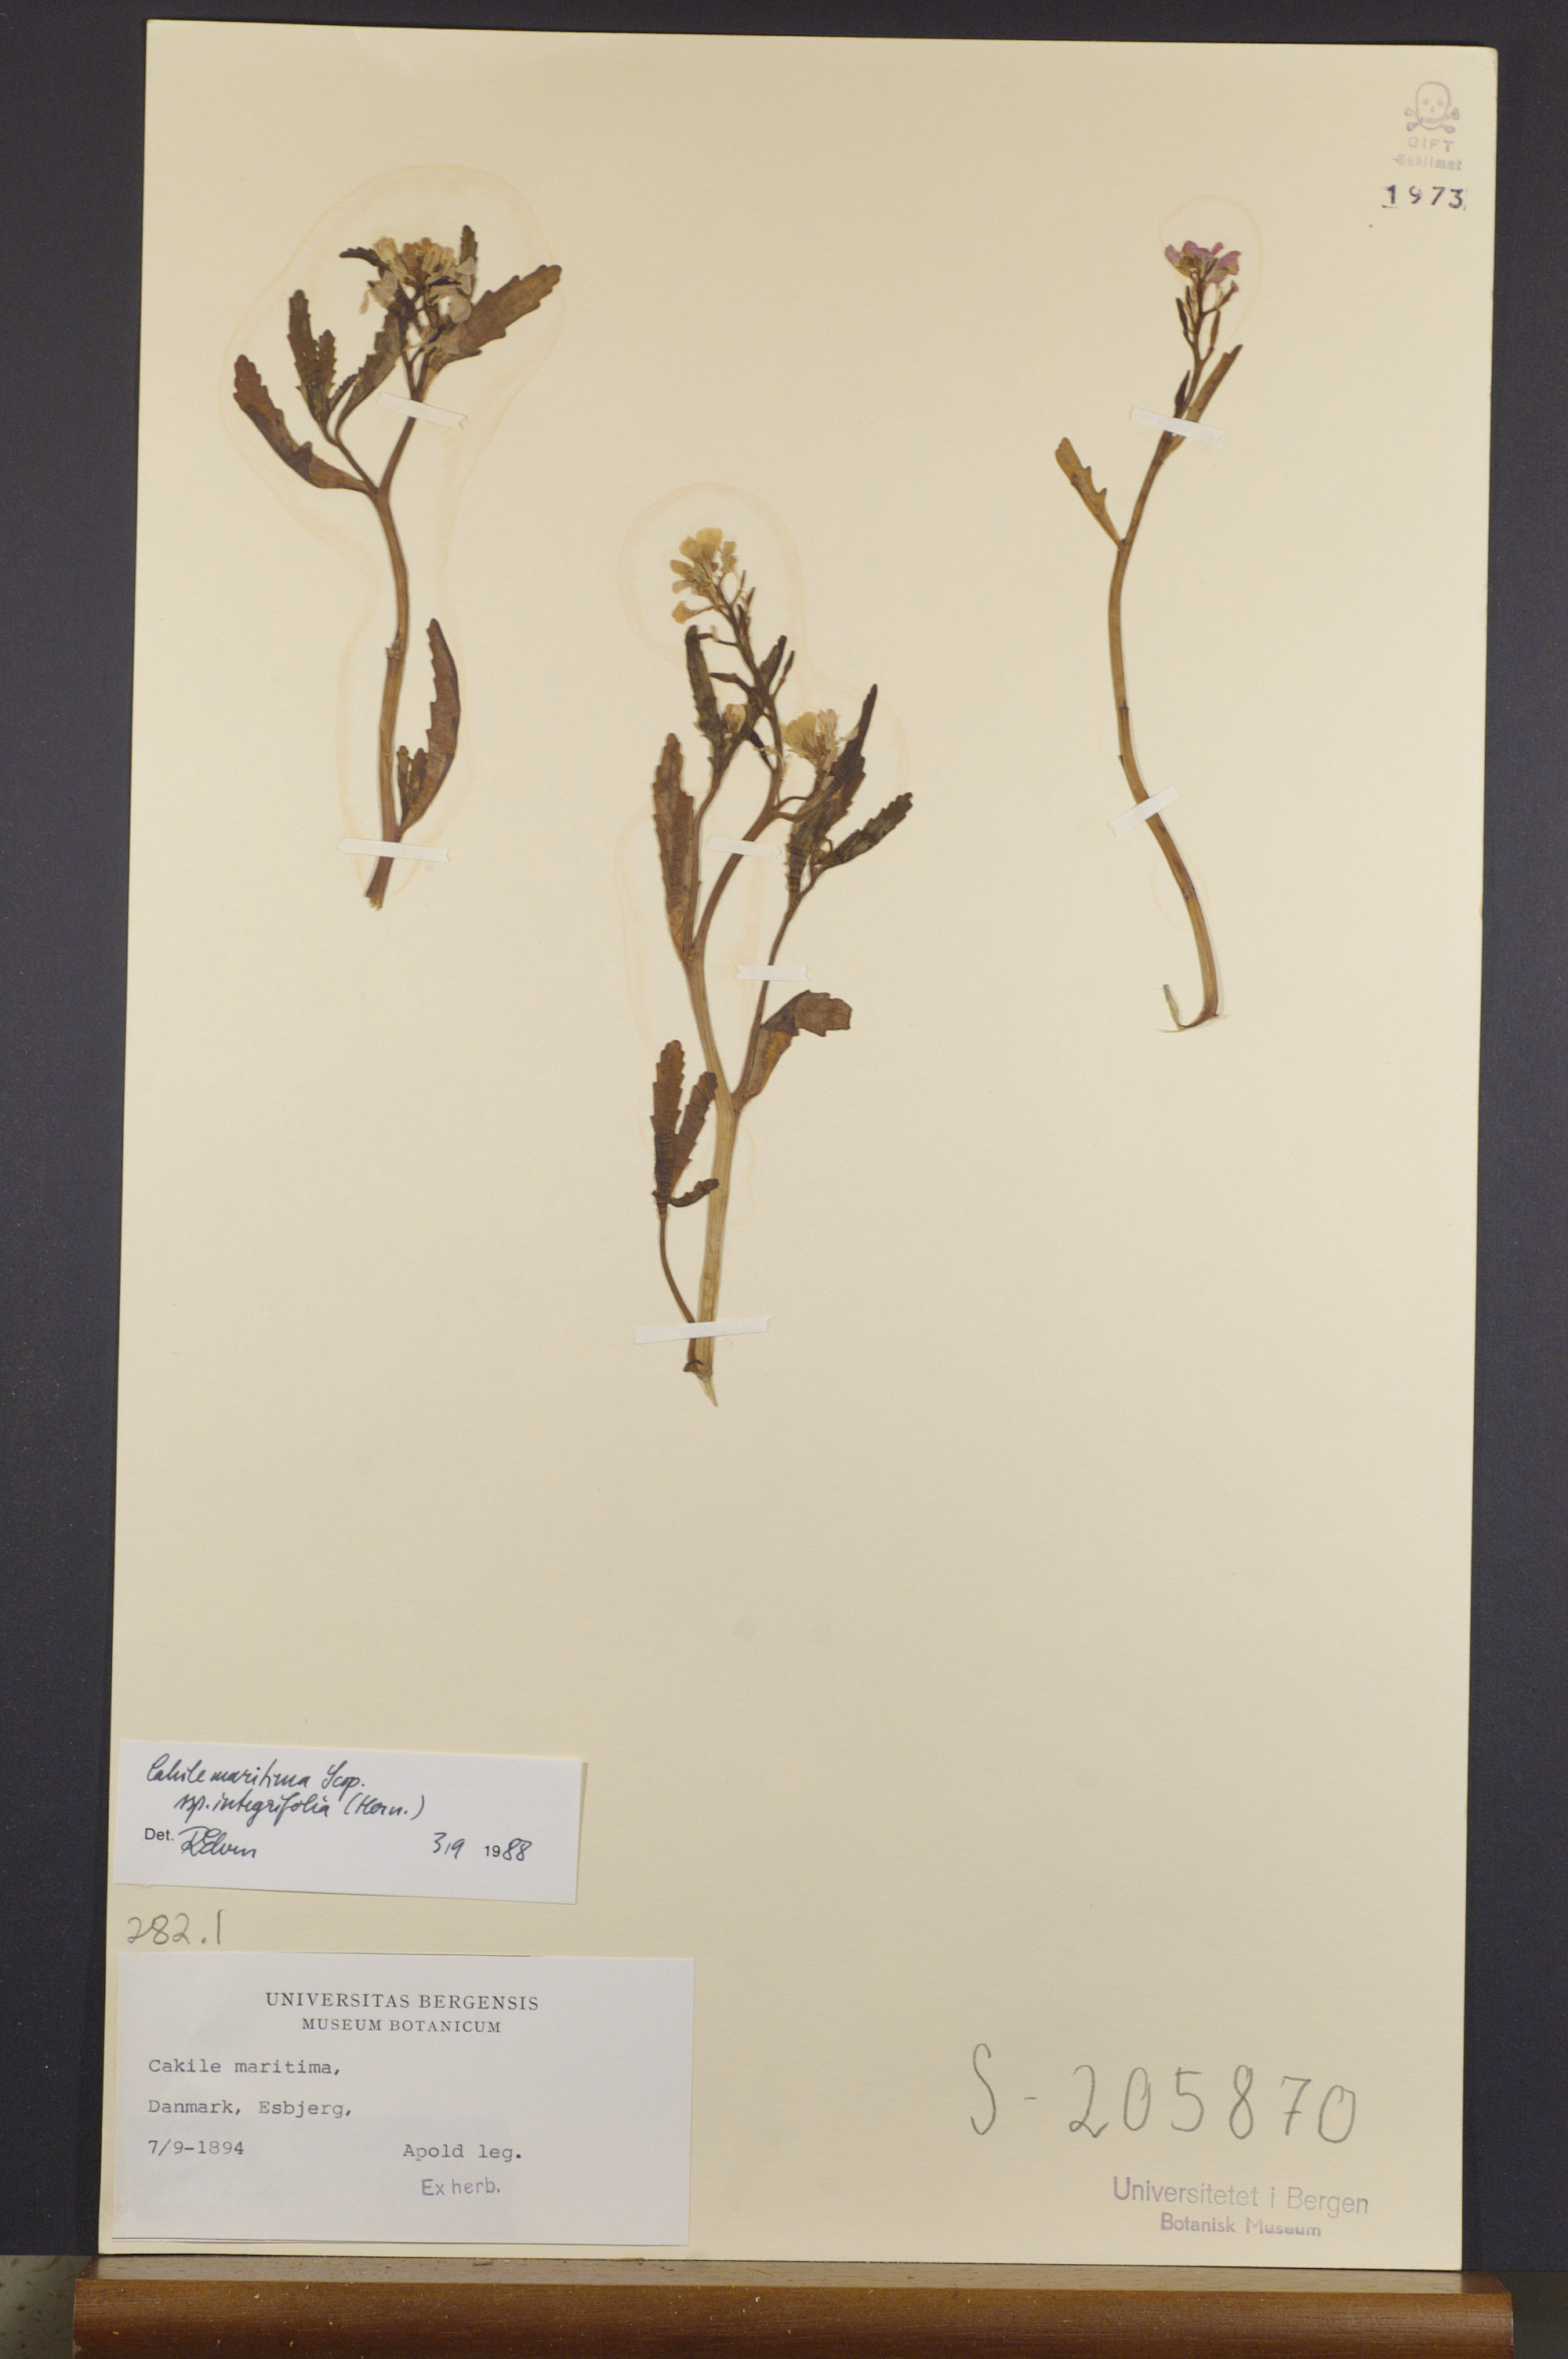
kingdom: Plantae
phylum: Tracheophyta
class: Magnoliopsida
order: Brassicales
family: Brassicaceae
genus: Cakile
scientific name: Cakile maritima
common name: Sea rocket
